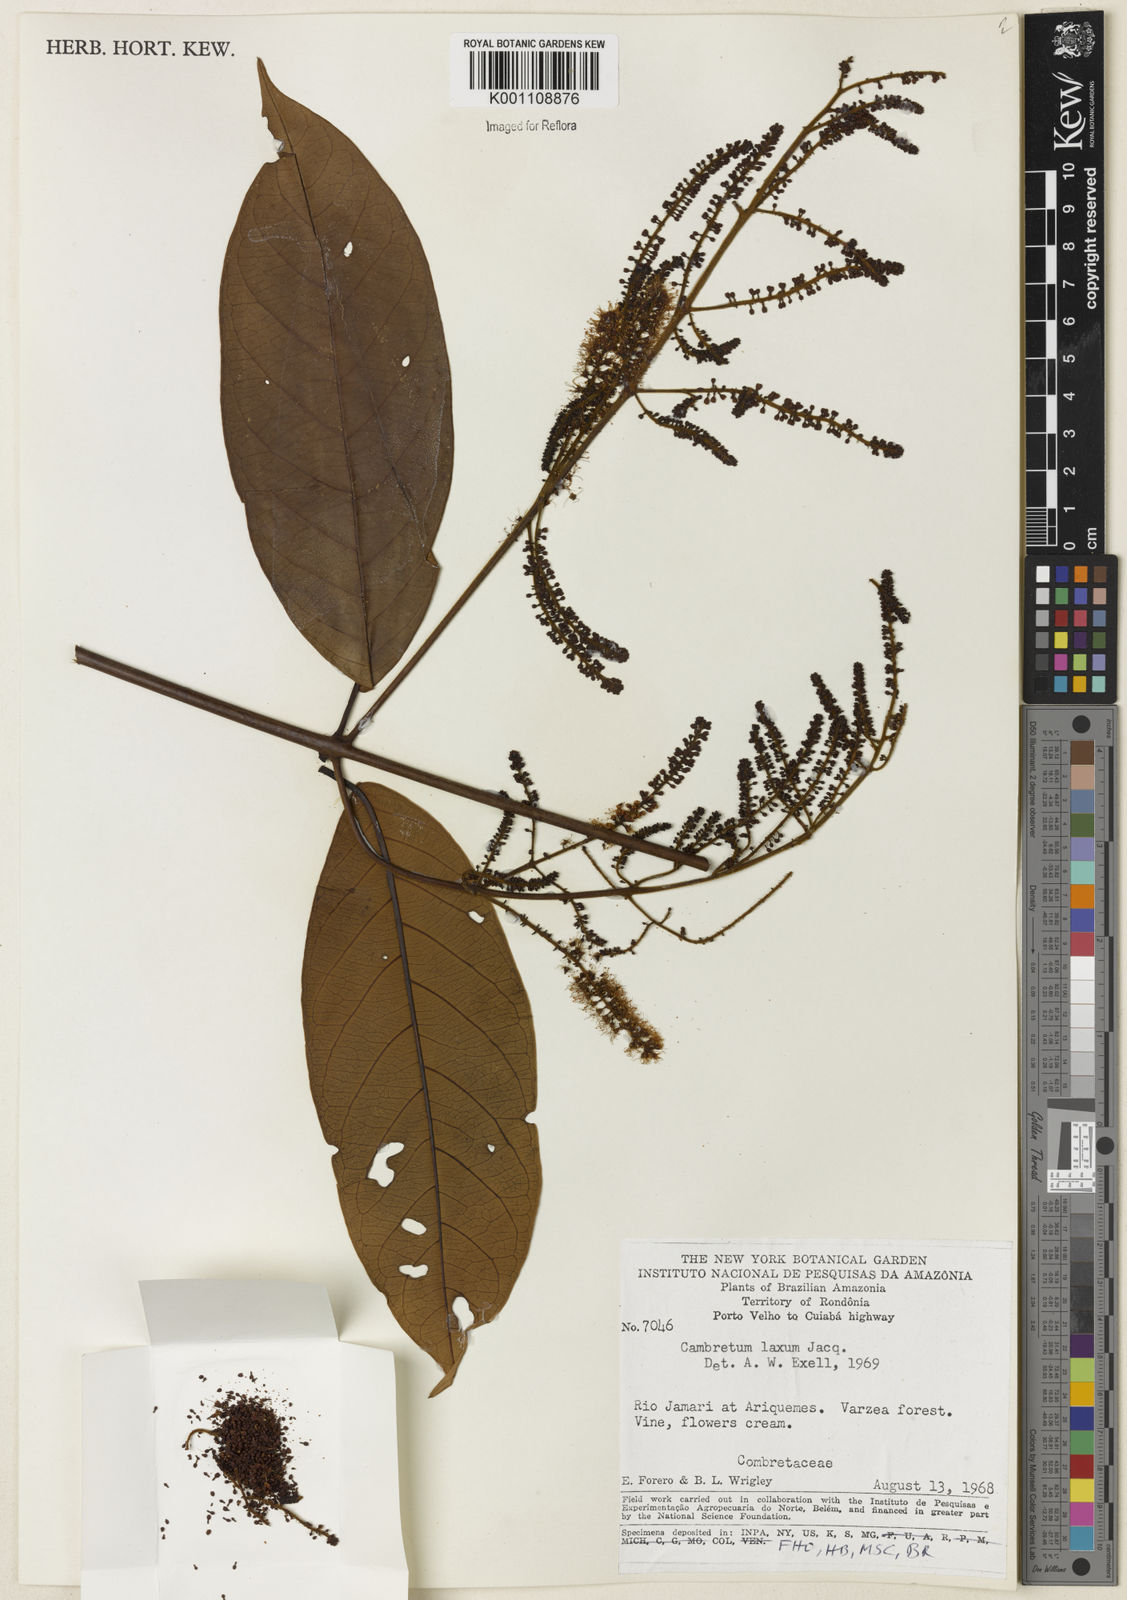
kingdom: Plantae
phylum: Tracheophyta
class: Magnoliopsida
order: Myrtales
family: Combretaceae
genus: Combretum
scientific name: Combretum laxum
